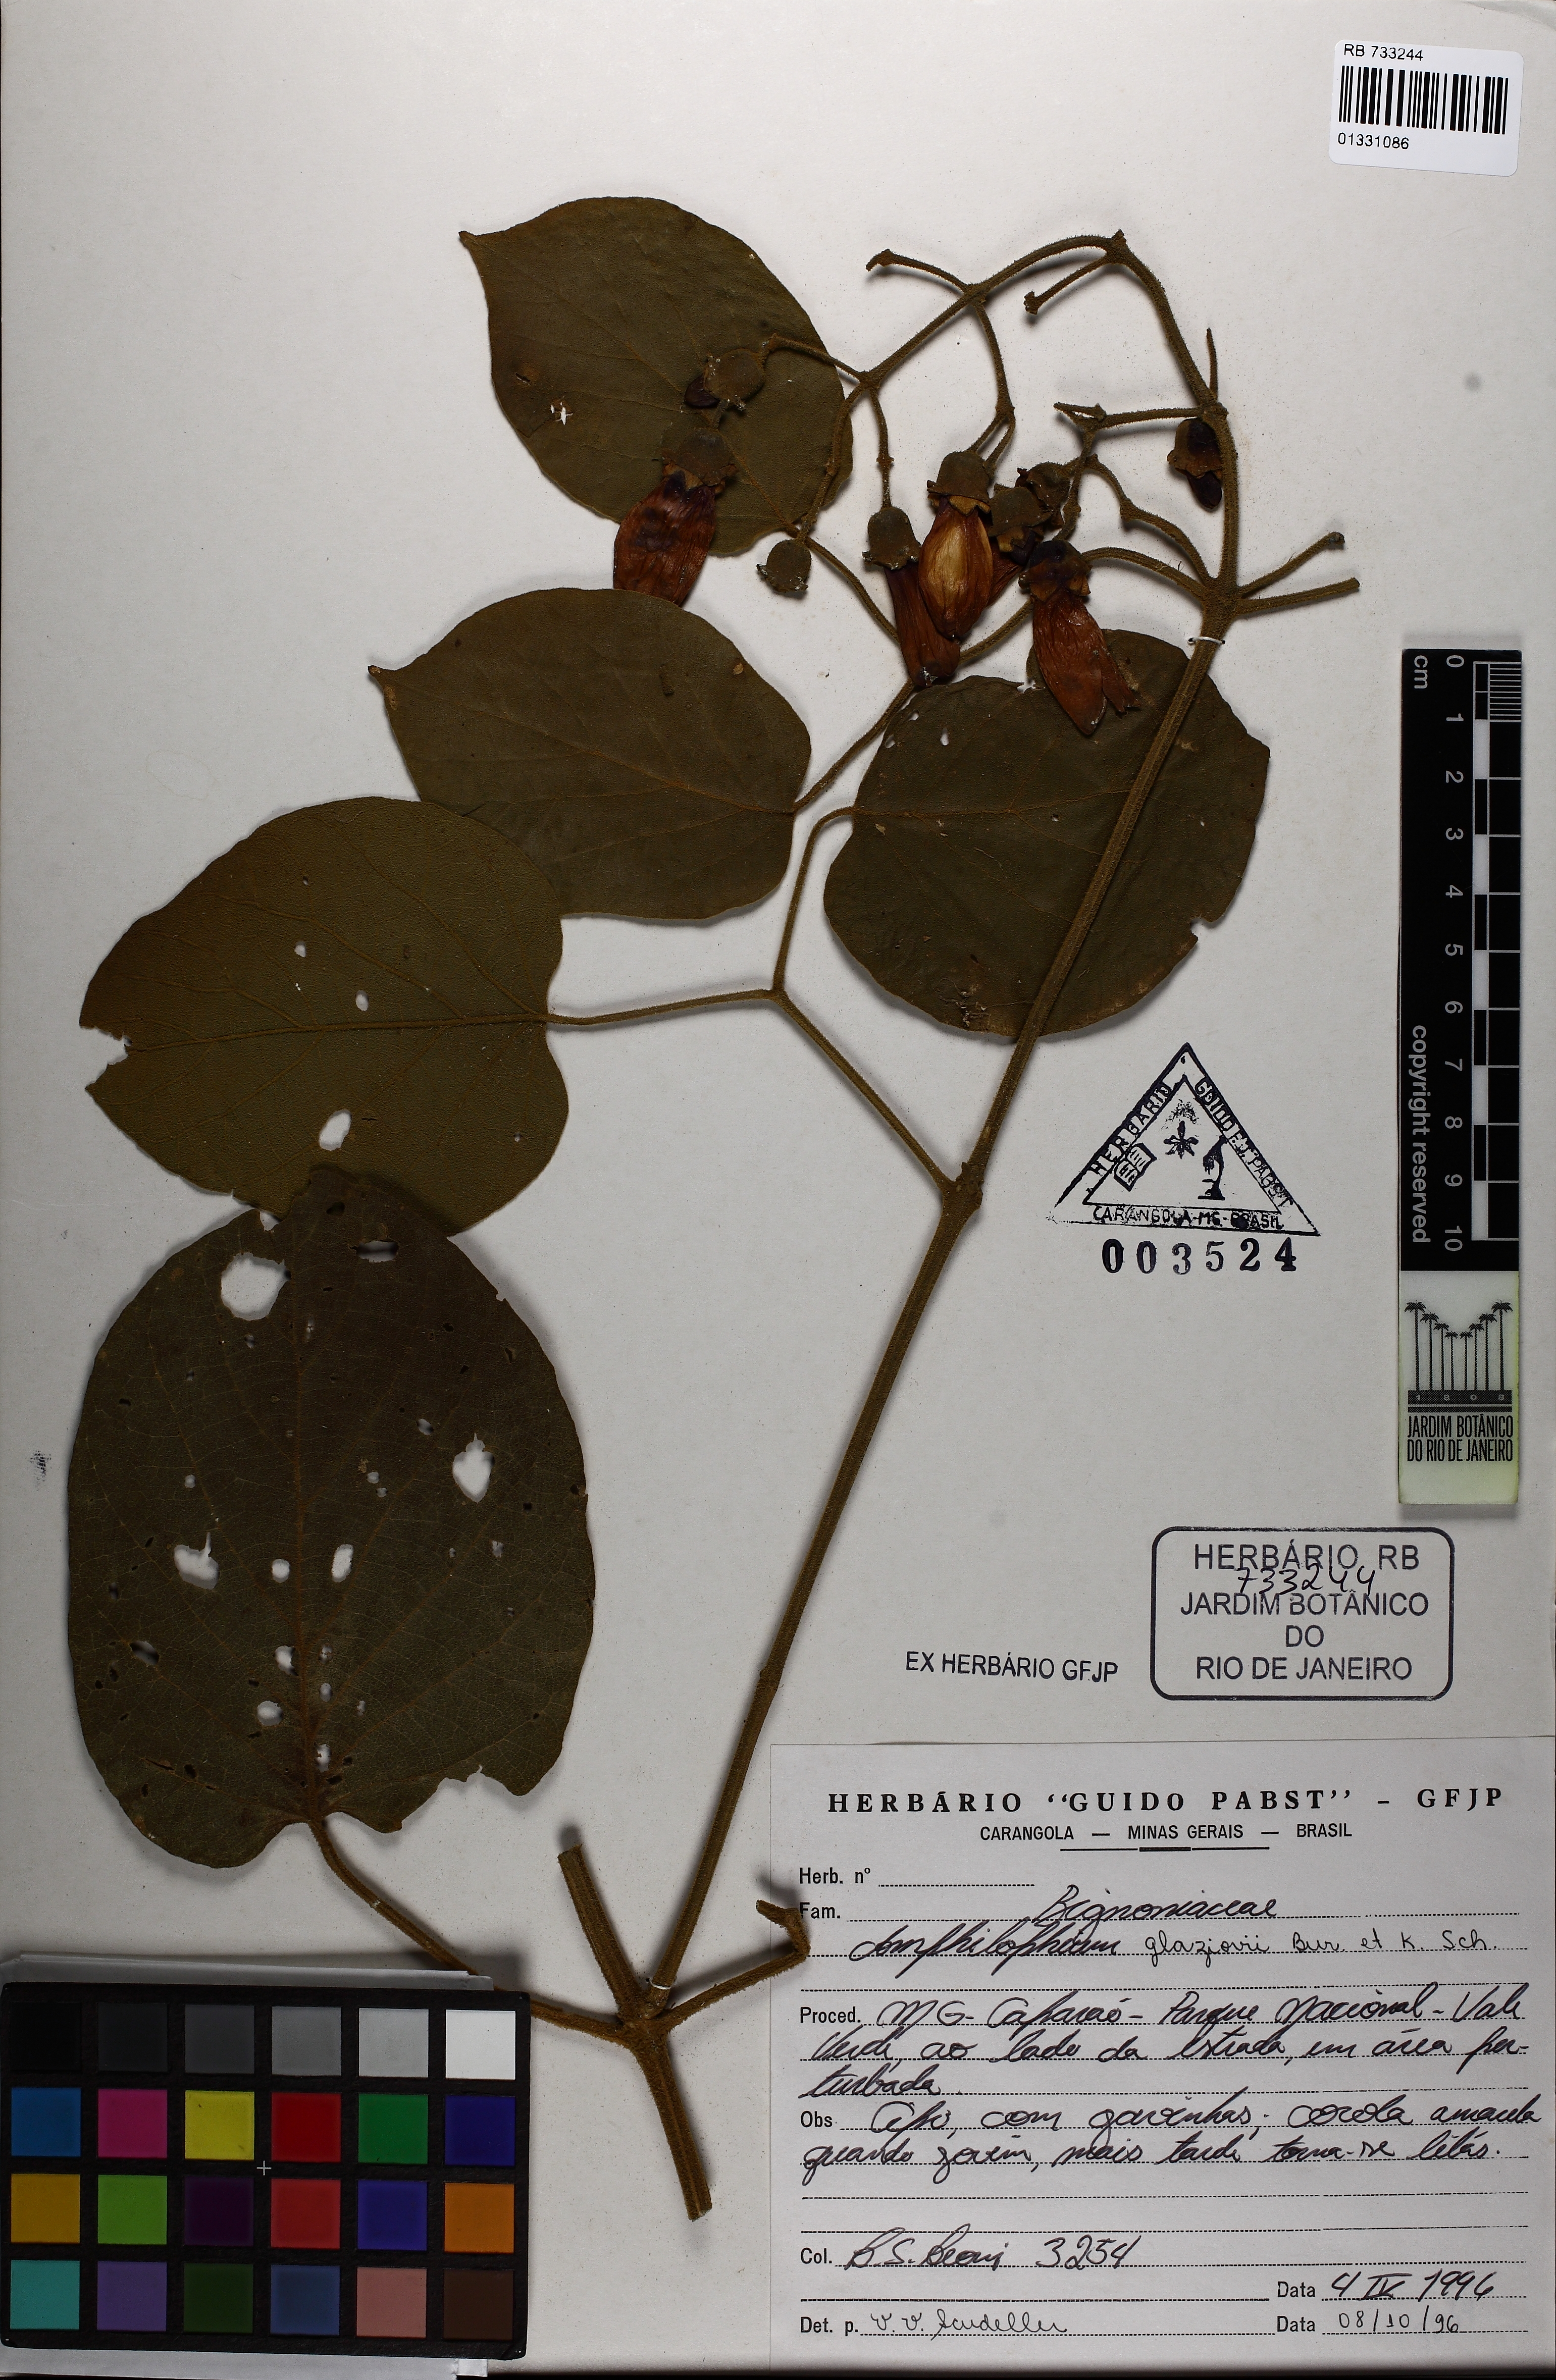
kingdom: Plantae
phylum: Tracheophyta
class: Magnoliopsida
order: Lamiales
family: Bignoniaceae
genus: Amphilophium
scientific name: Amphilophium dusenianum
